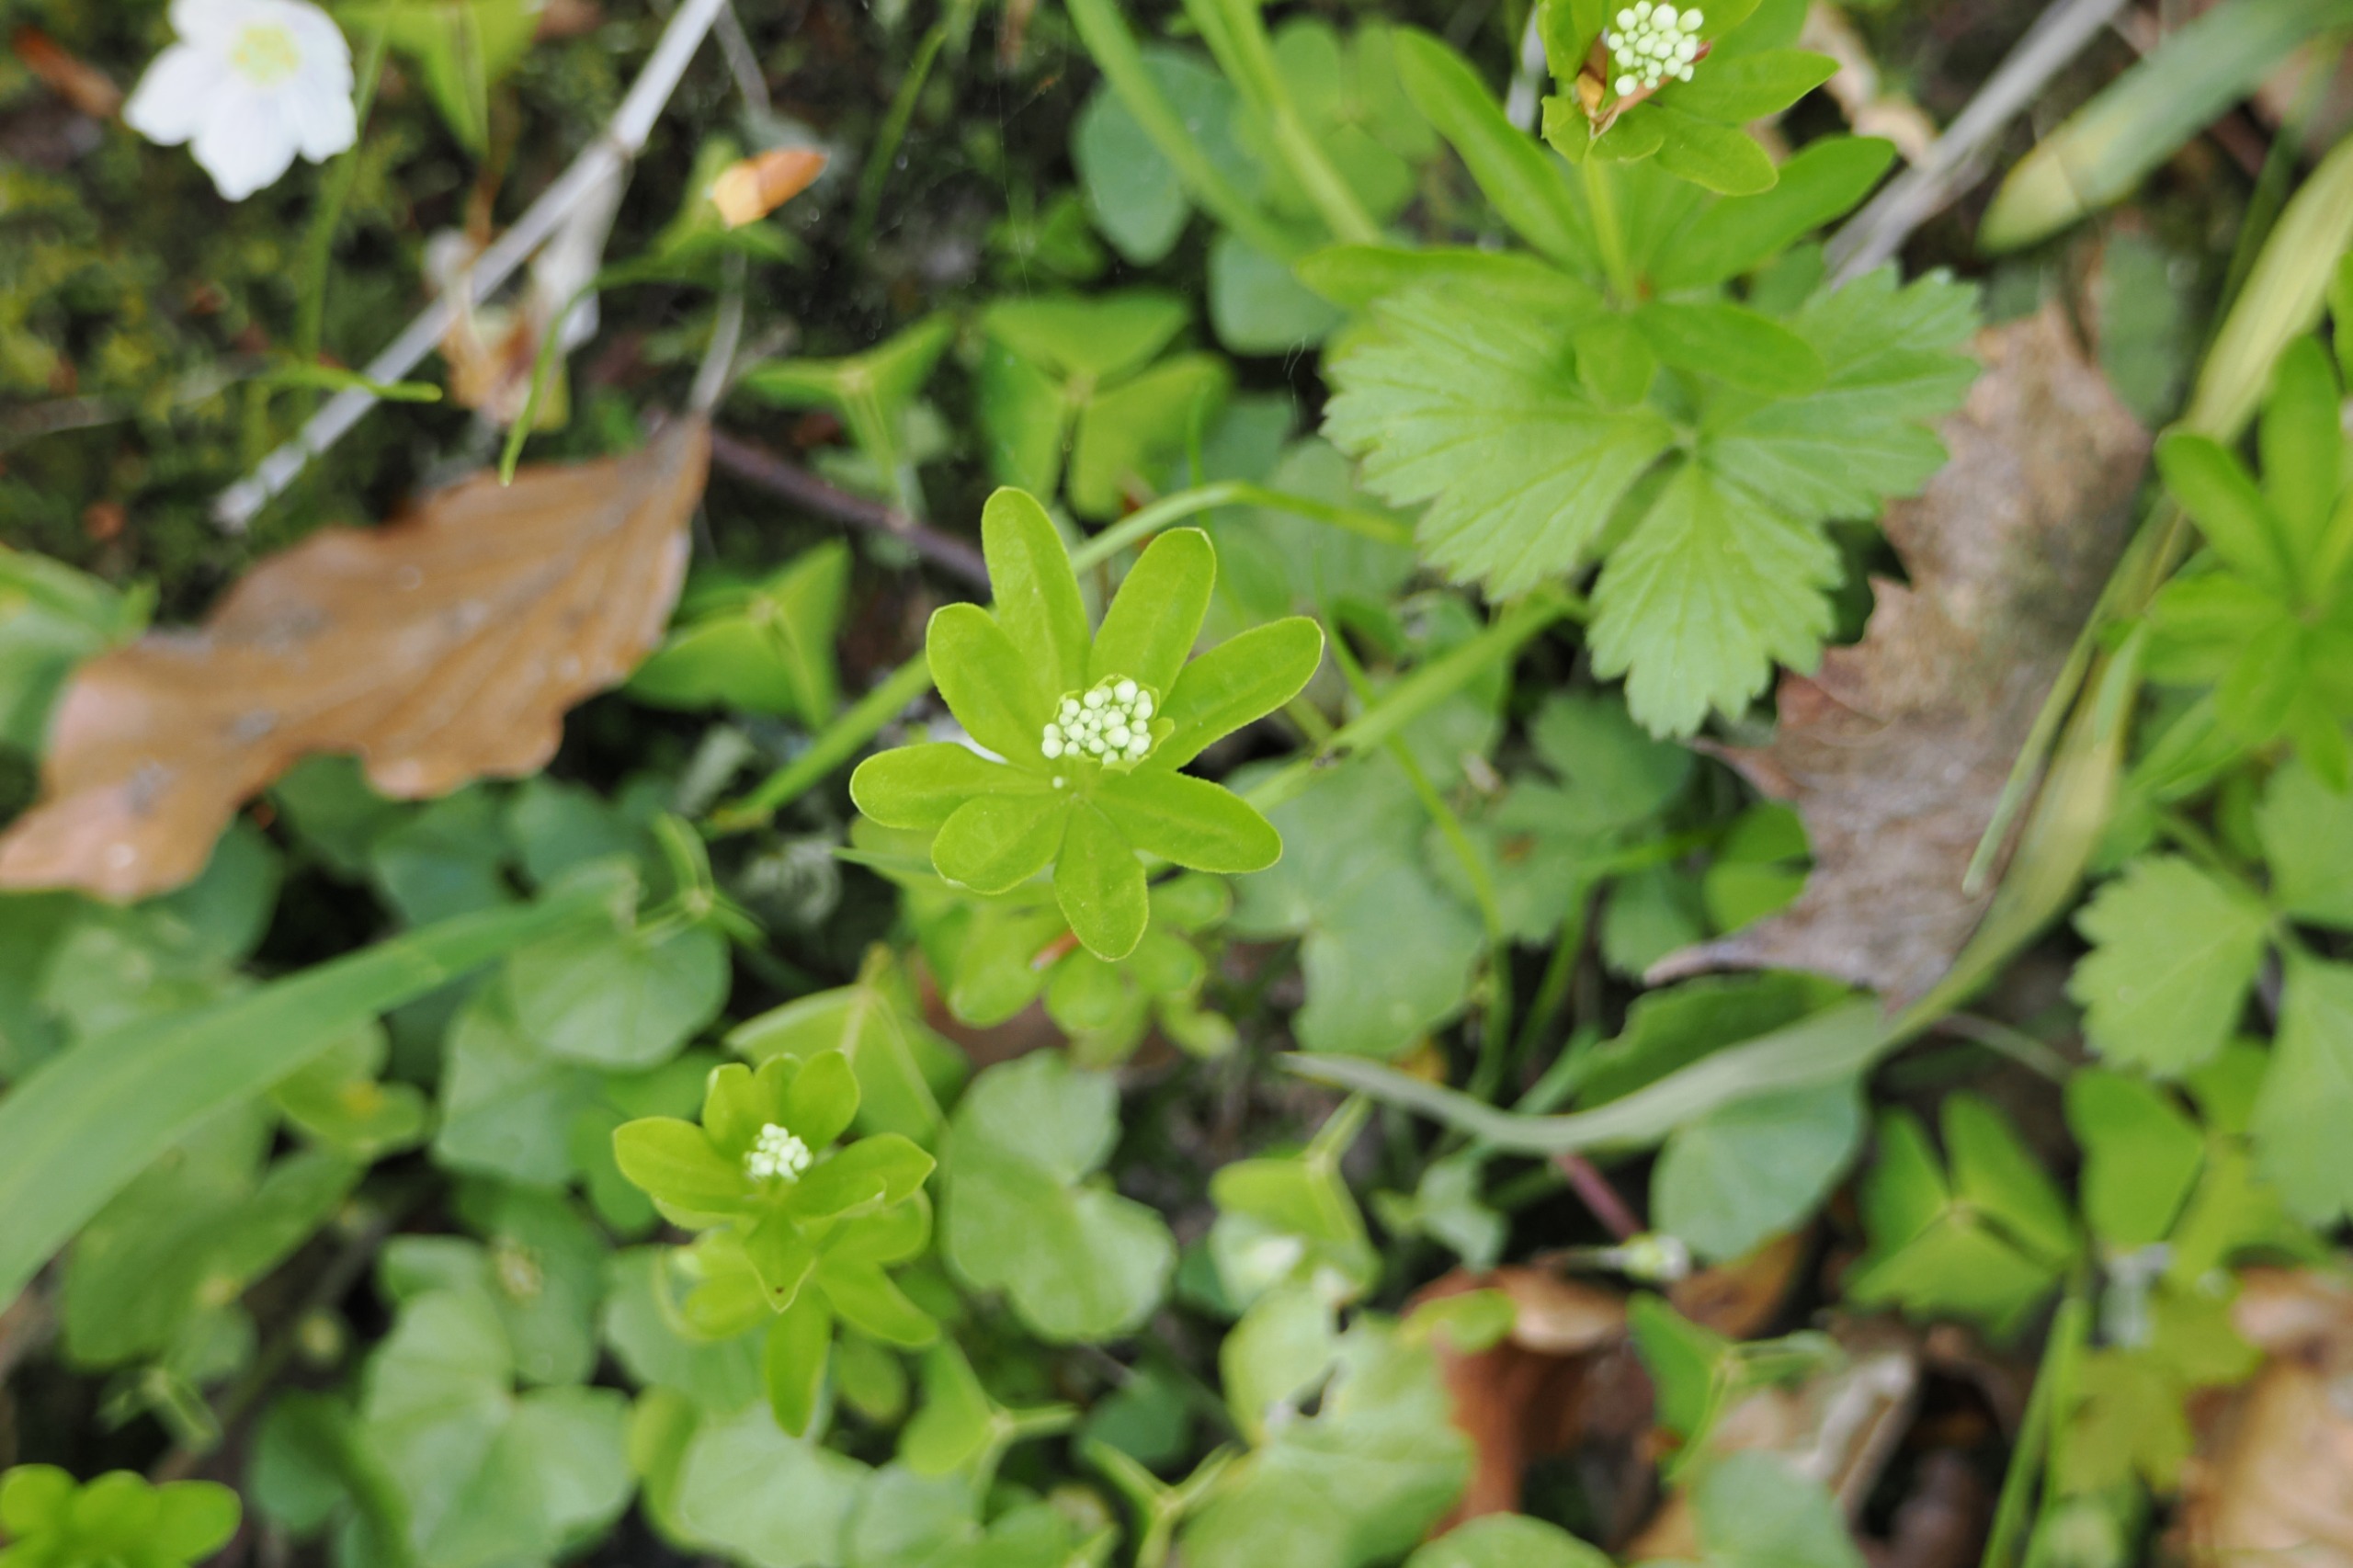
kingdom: Plantae
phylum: Tracheophyta
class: Magnoliopsida
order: Gentianales
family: Rubiaceae
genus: Galium
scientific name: Galium odoratum
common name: Skovmærke
